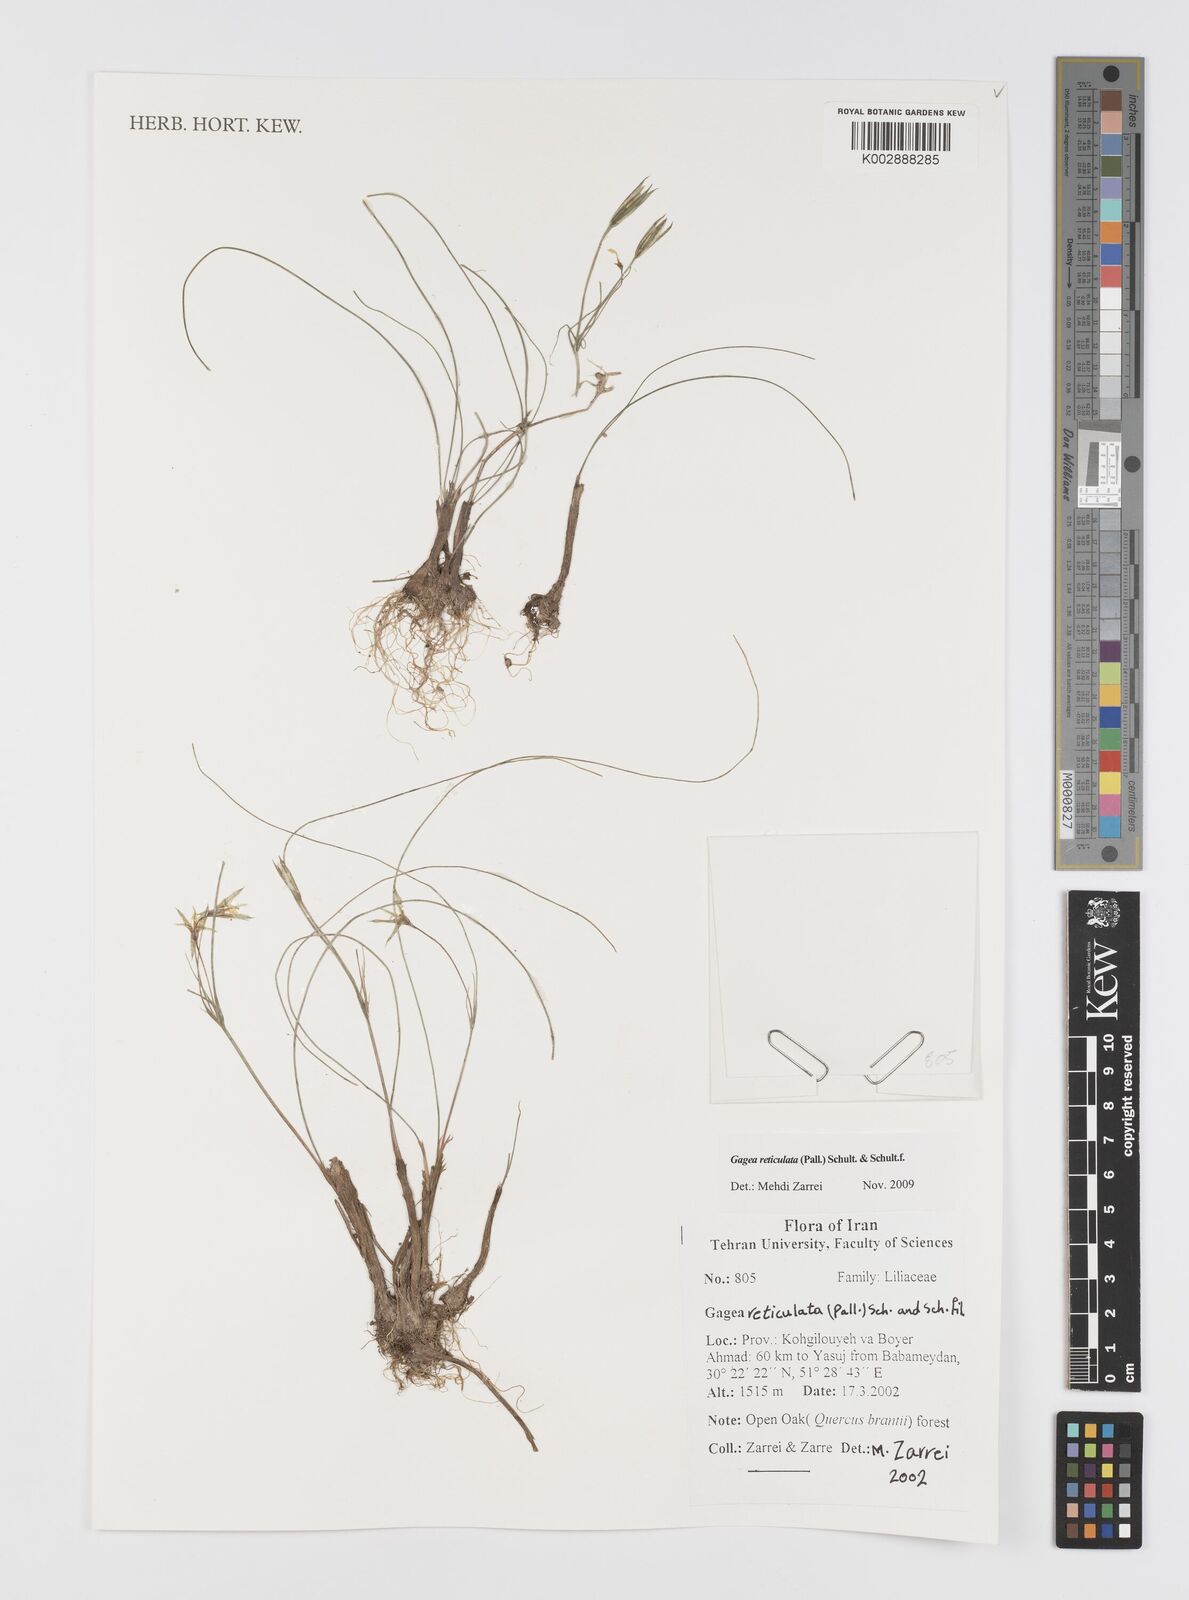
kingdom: Plantae
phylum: Tracheophyta
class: Liliopsida
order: Liliales
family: Liliaceae
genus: Gagea
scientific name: Gagea reticulata
